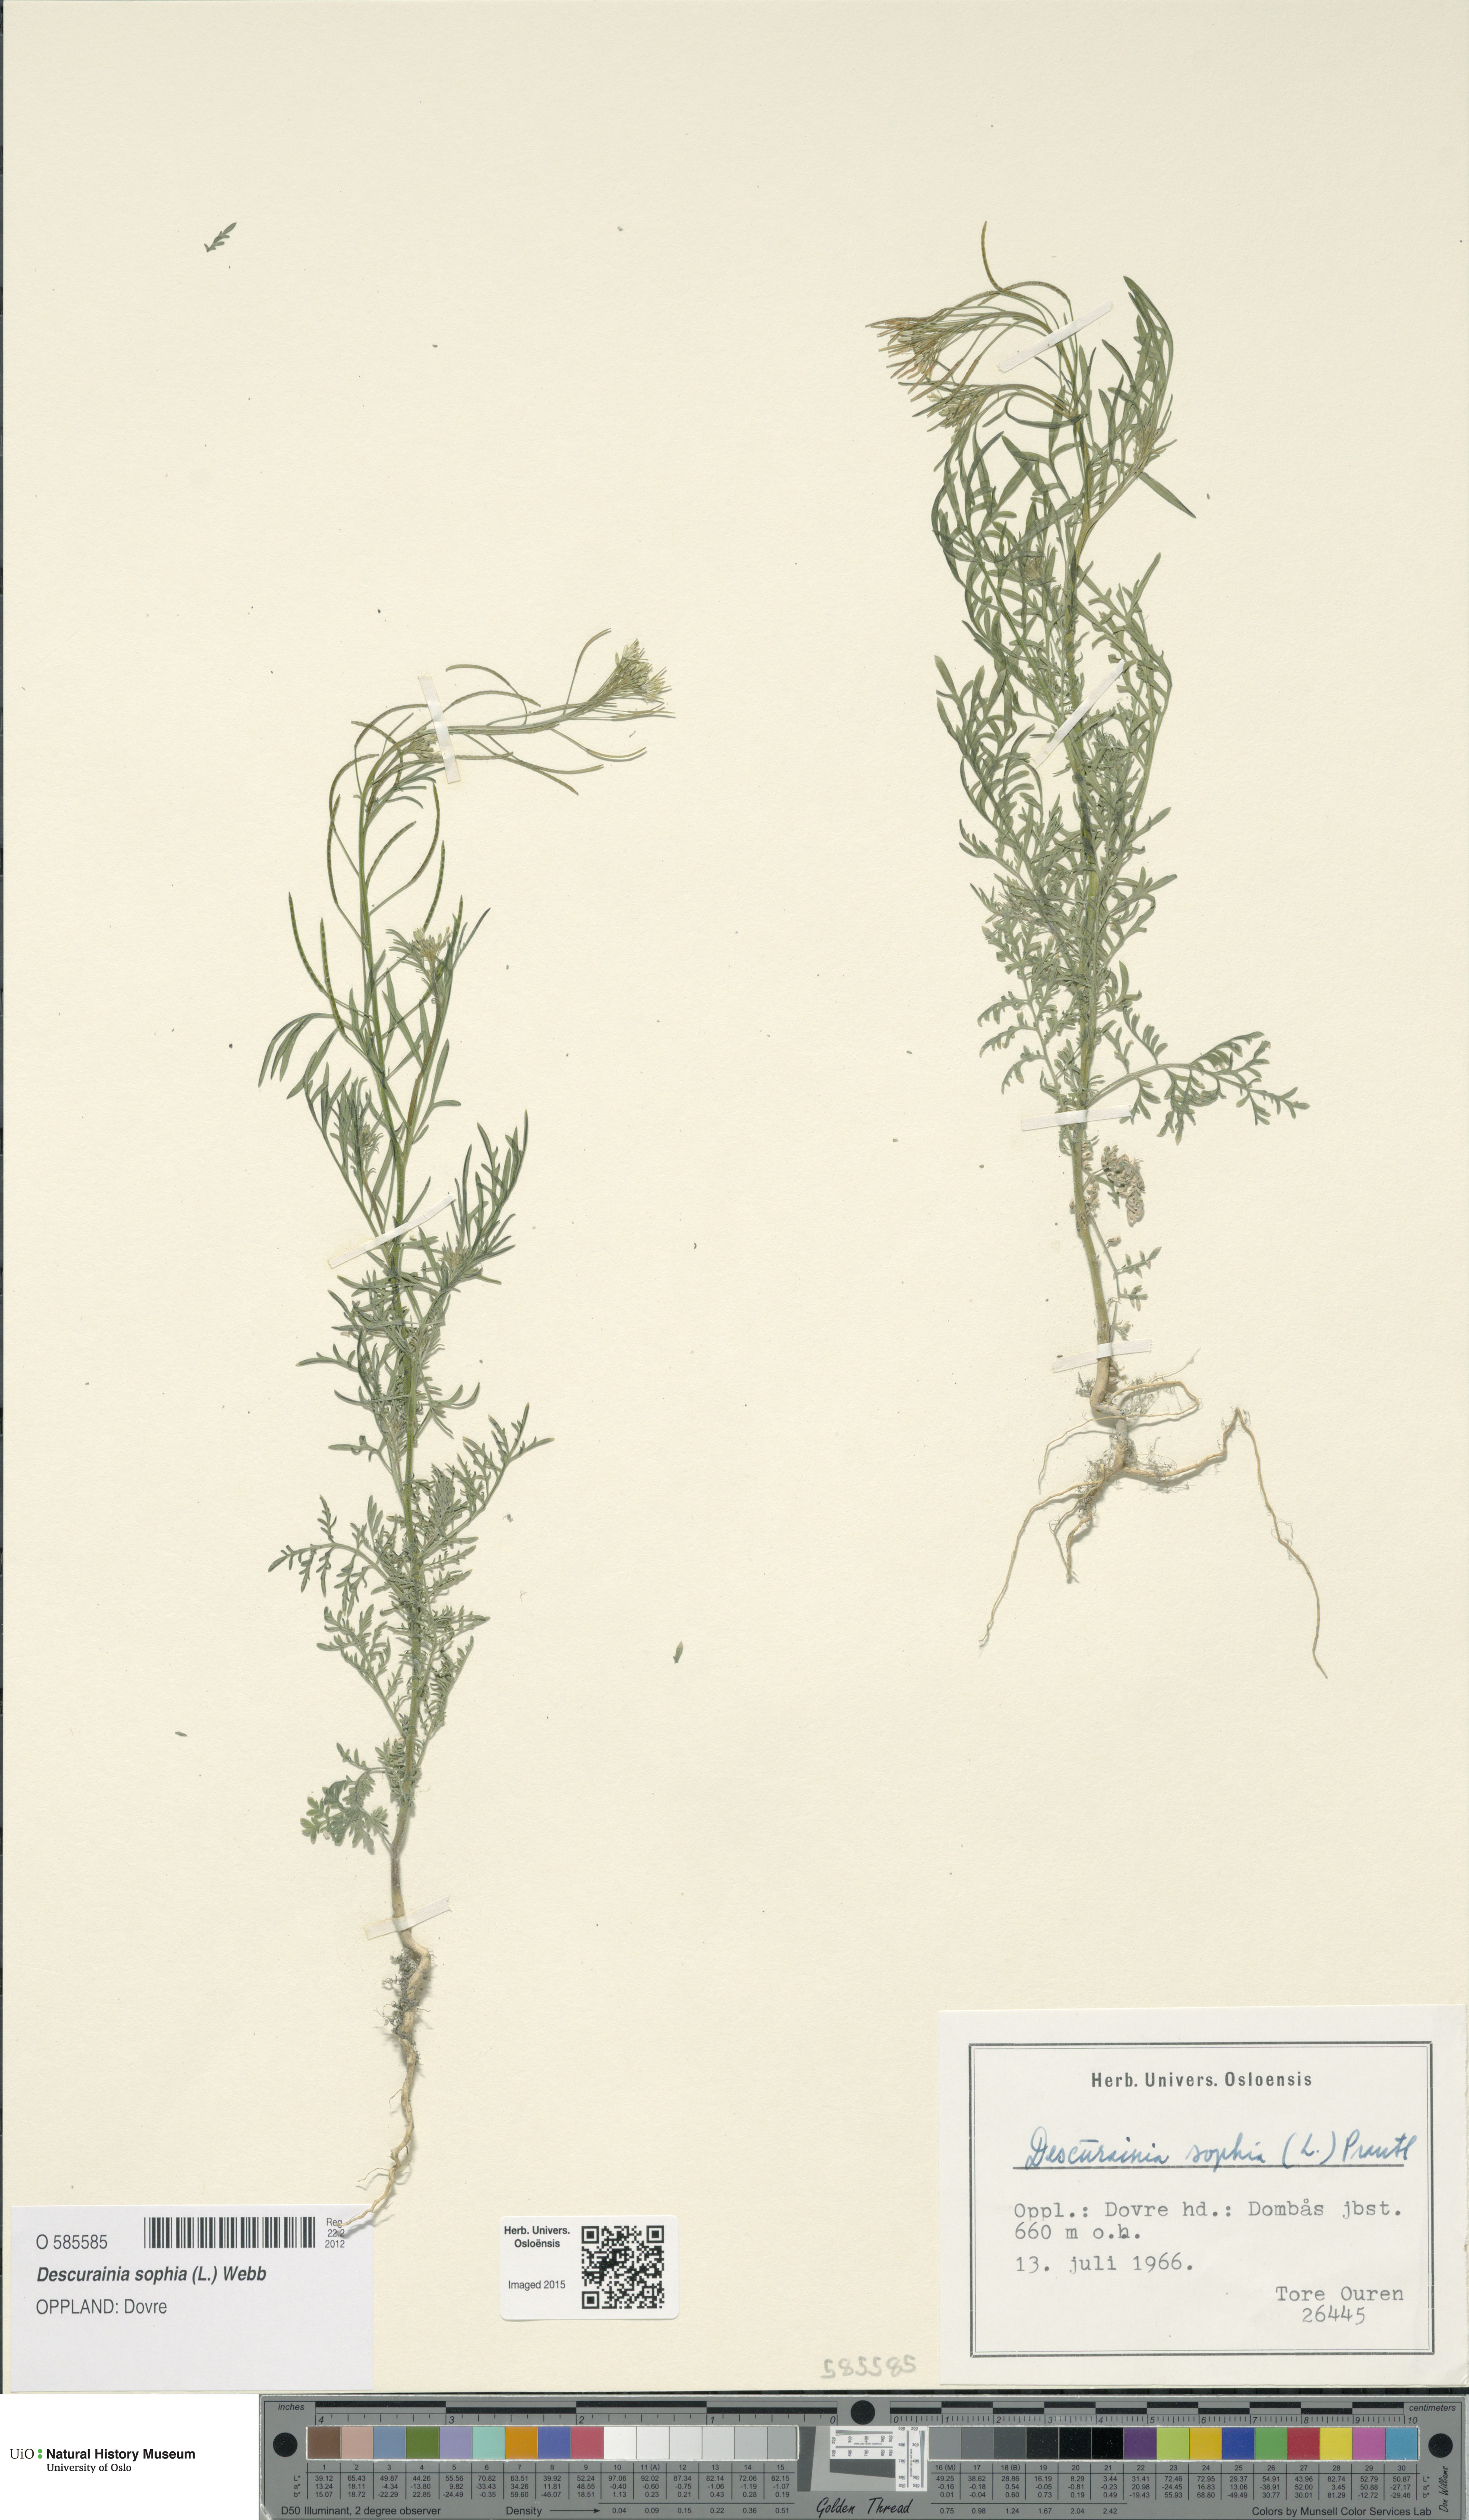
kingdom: Plantae
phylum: Tracheophyta
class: Magnoliopsida
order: Brassicales
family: Brassicaceae
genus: Descurainia
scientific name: Descurainia sophia
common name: Flixweed
